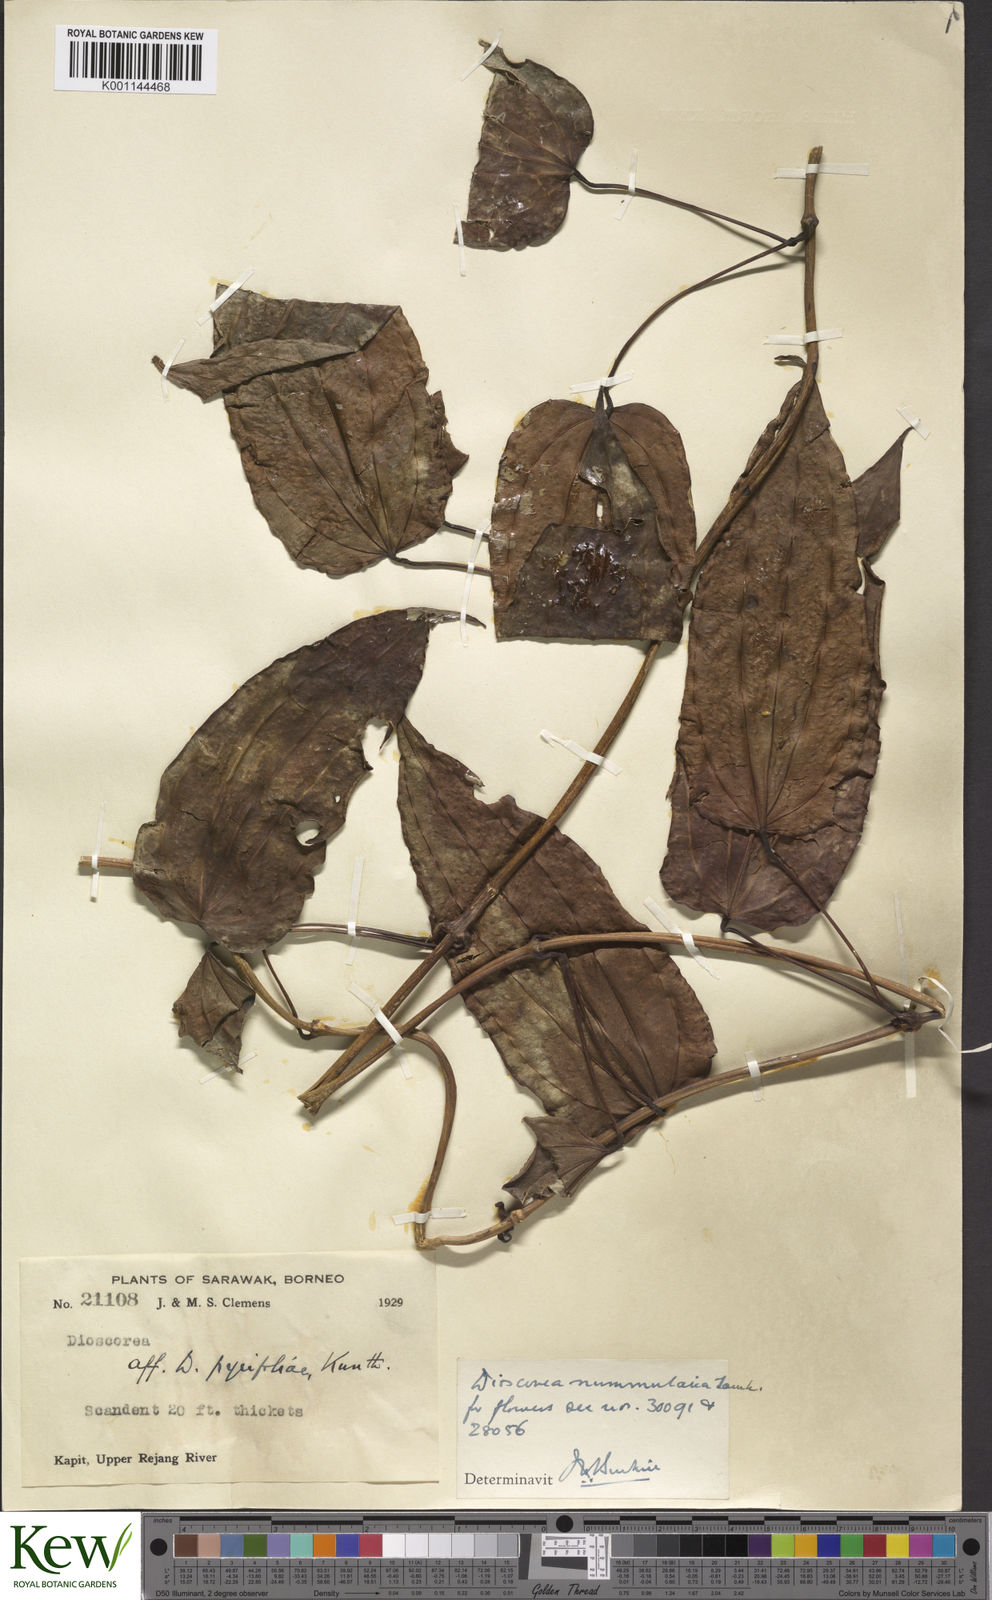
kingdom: Plantae
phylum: Tracheophyta
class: Liliopsida
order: Dioscoreales
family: Dioscoreaceae
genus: Dioscorea
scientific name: Dioscorea nummularia
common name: Pacific yam
